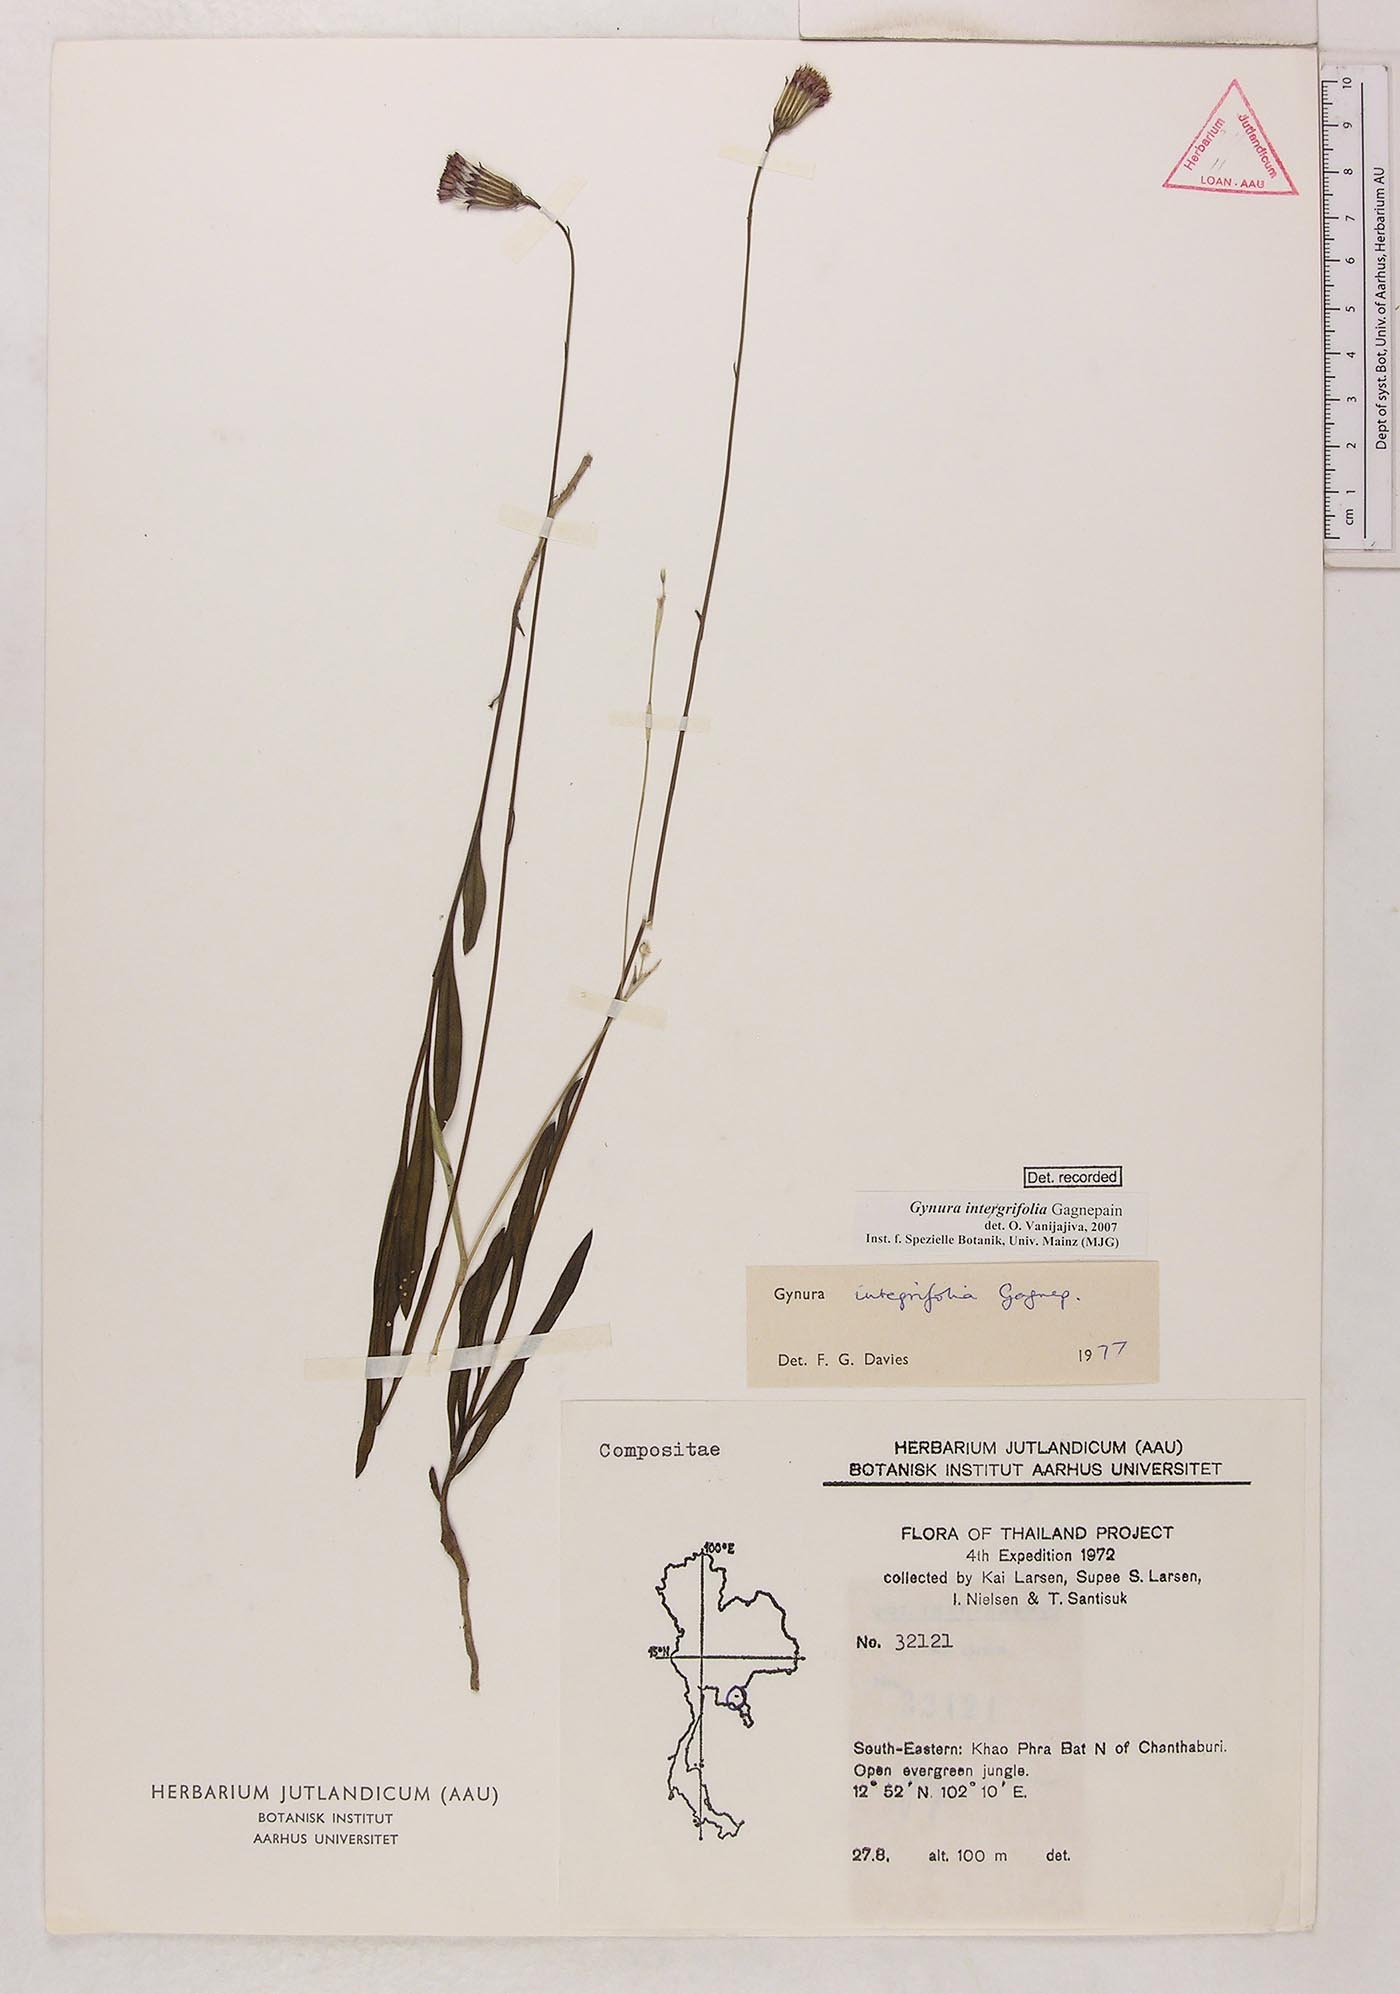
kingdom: Plantae
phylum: Tracheophyta
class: Magnoliopsida
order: Asterales
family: Asteraceae
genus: Gynura
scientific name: Gynura integrifolia
